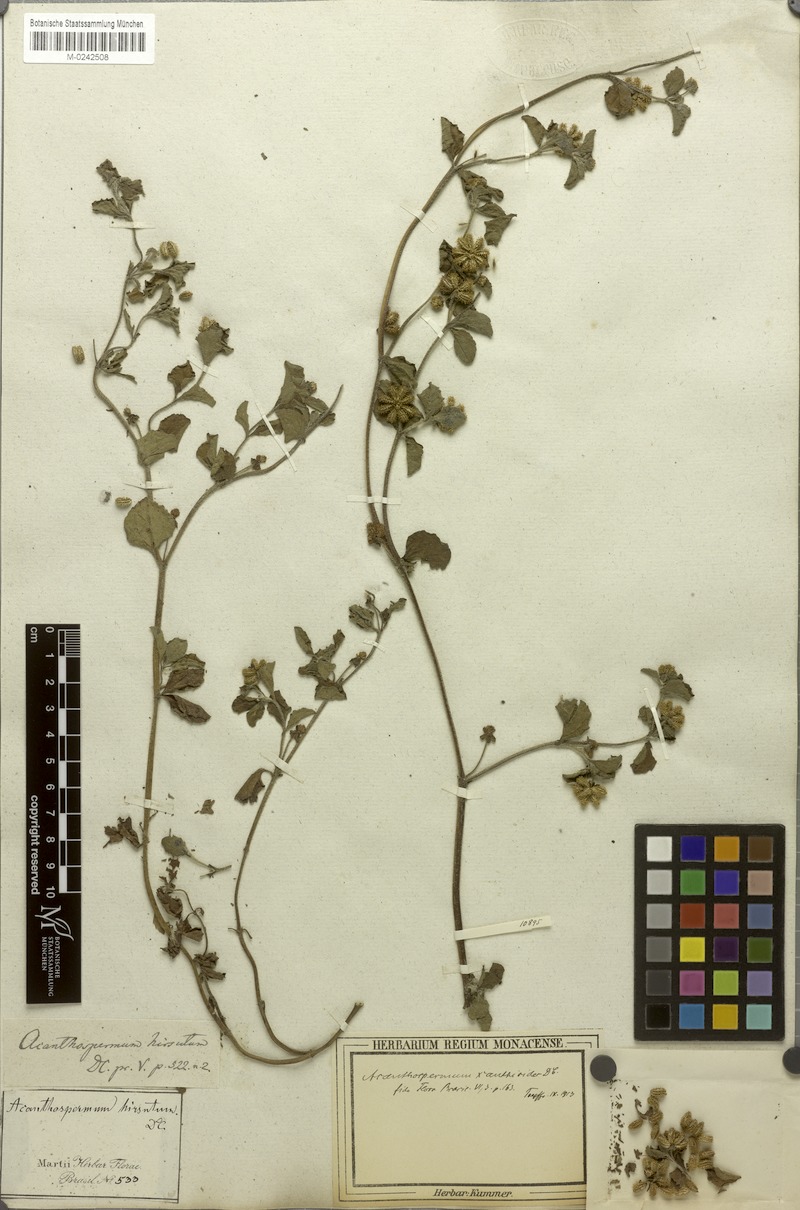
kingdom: Plantae
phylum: Tracheophyta
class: Magnoliopsida
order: Asterales
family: Asteraceae
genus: Acanthospermum
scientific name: Acanthospermum australe
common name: Paraguayan starbur
